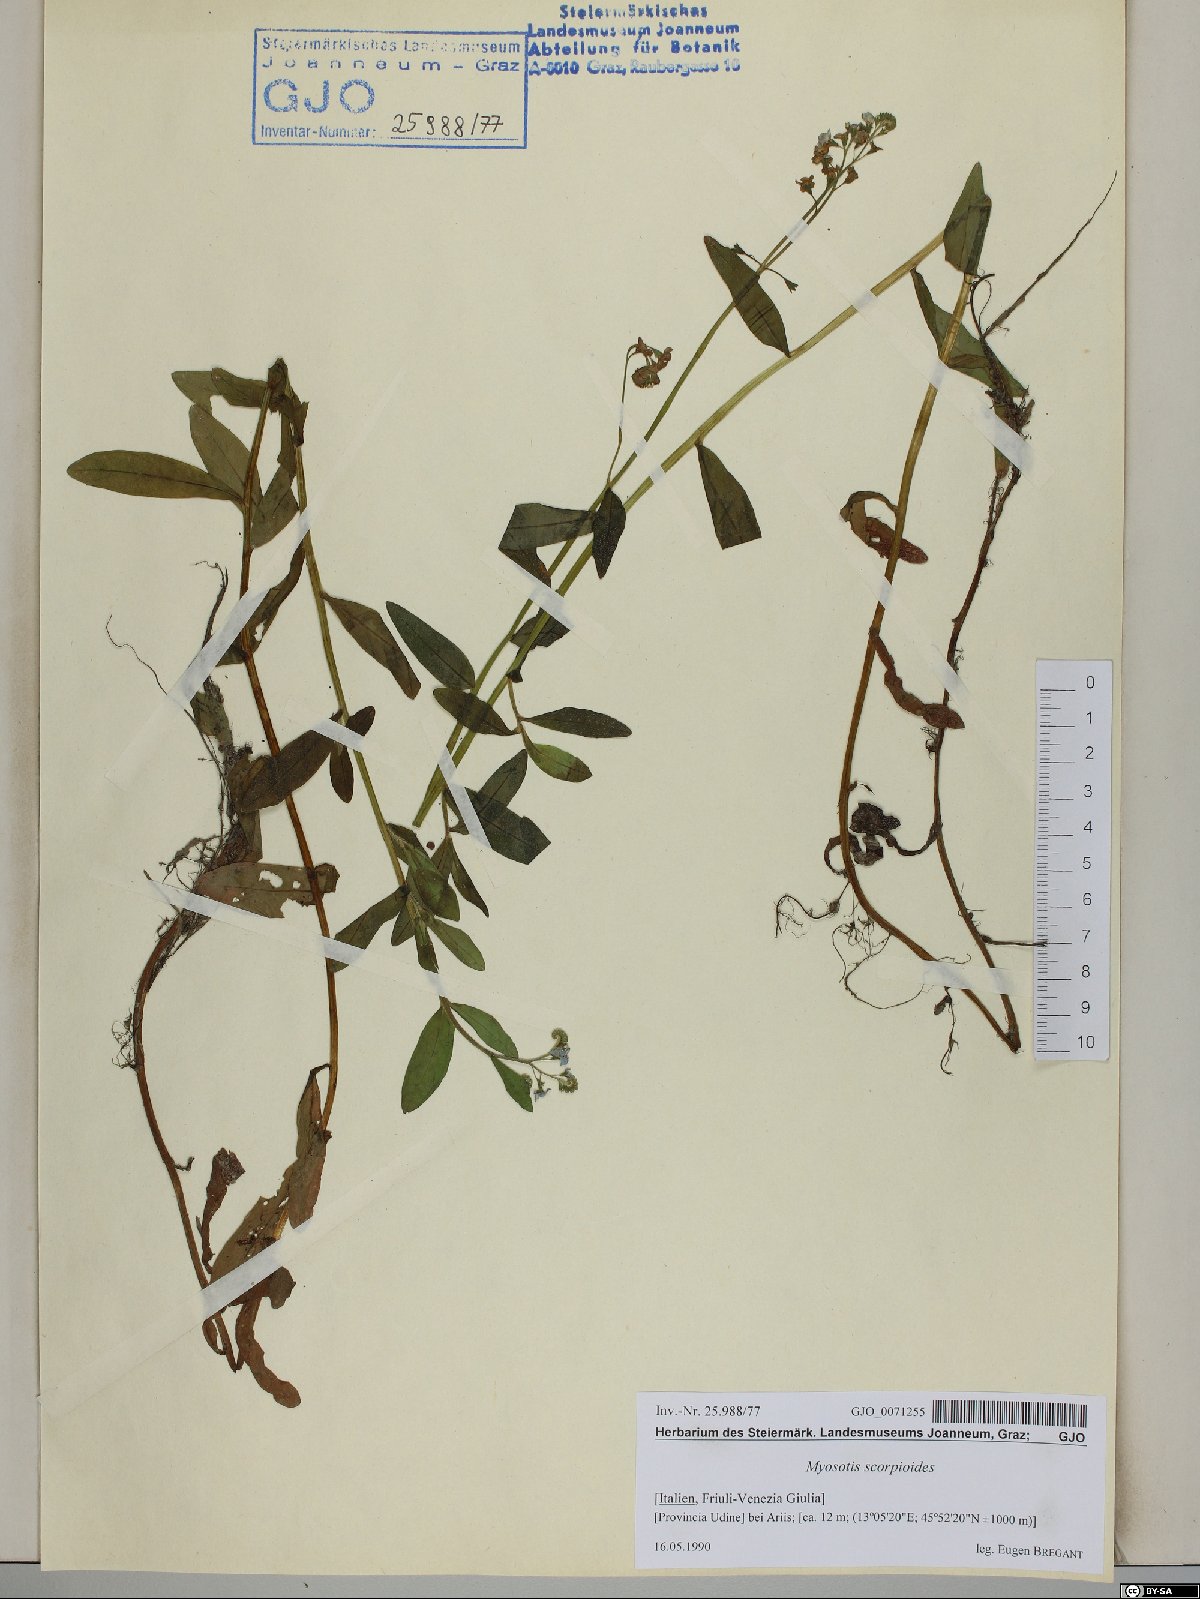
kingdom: Plantae
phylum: Tracheophyta
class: Magnoliopsida
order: Boraginales
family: Boraginaceae
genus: Myosotis
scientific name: Myosotis scorpioides
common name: Water forget-me-not
